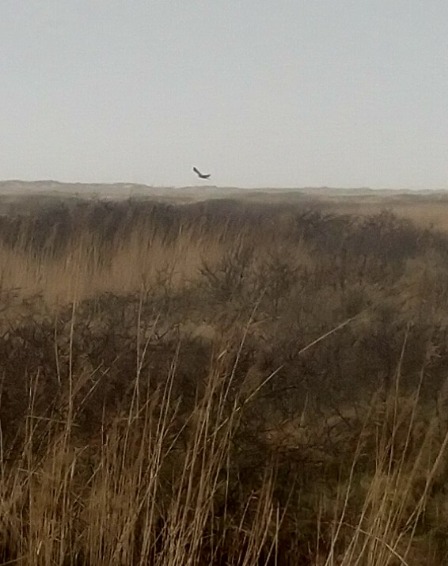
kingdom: Animalia
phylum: Chordata
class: Aves
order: Accipitriformes
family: Accipitridae
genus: Circus
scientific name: Circus cyaneus
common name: Blå kærhøg
